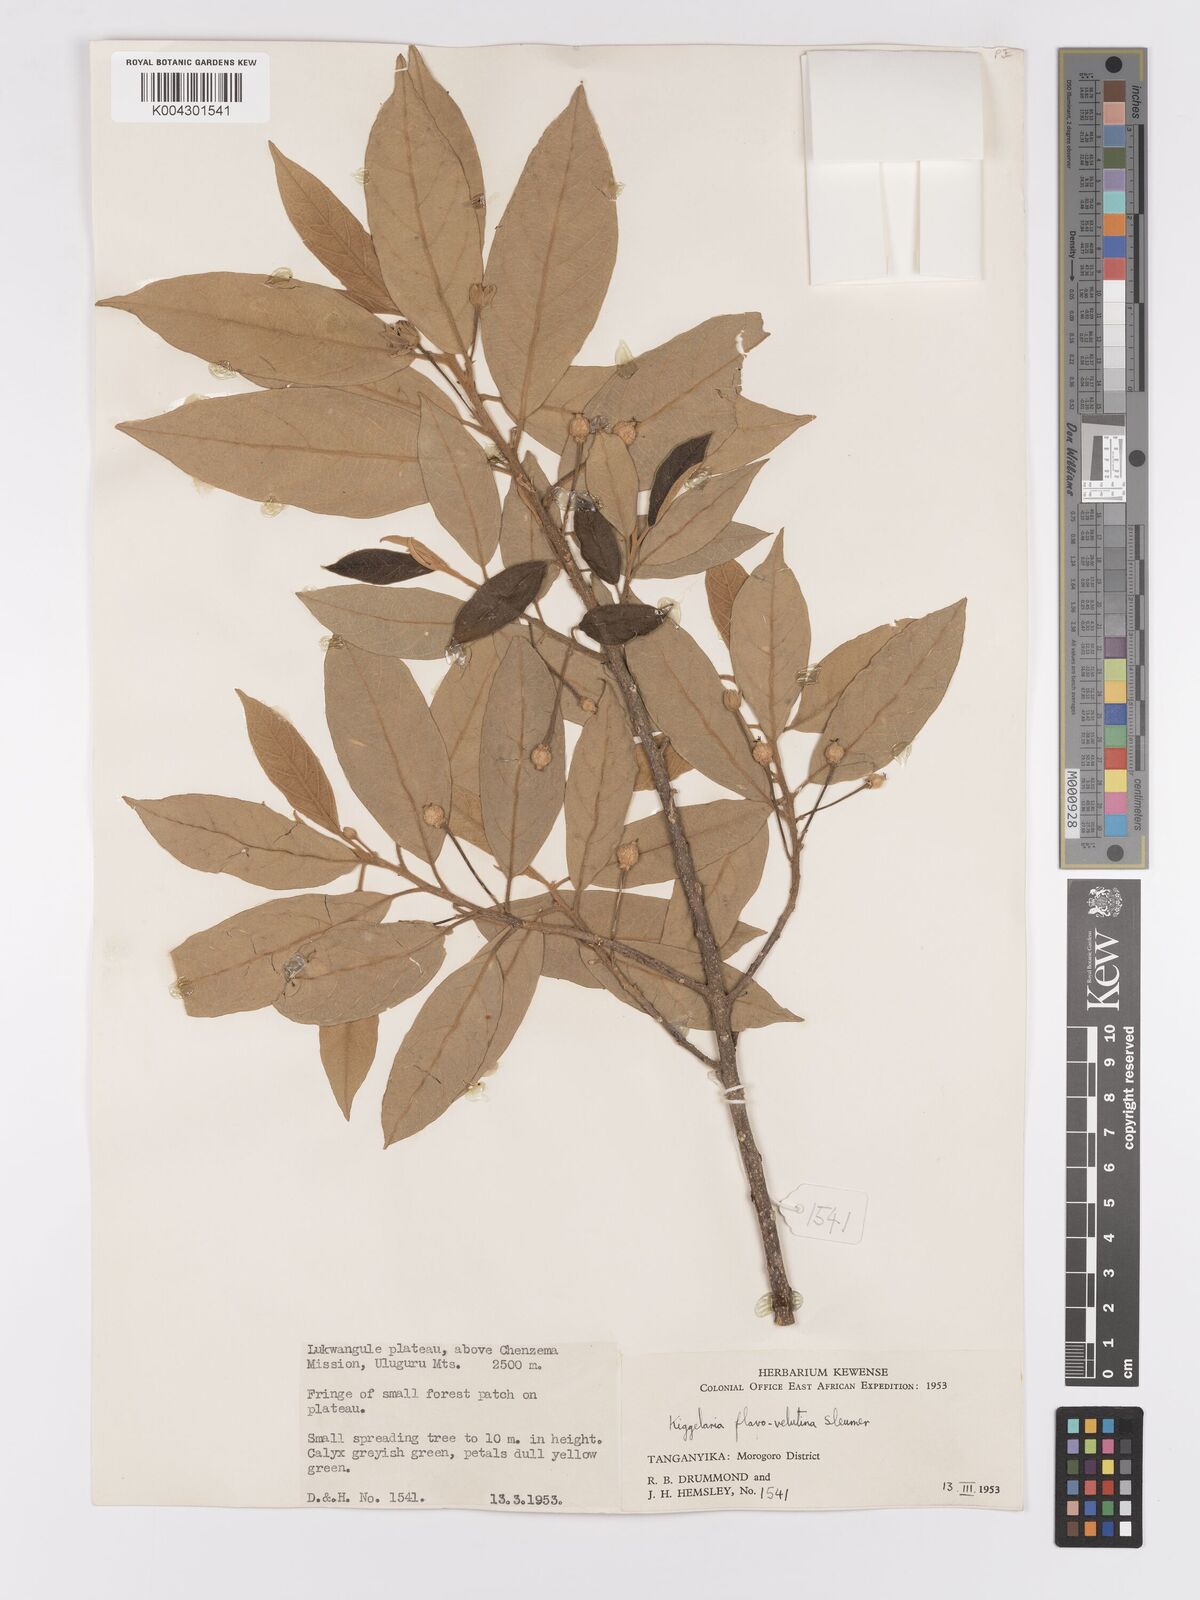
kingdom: Plantae
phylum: Tracheophyta
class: Magnoliopsida
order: Malpighiales
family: Achariaceae
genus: Kiggelaria
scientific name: Kiggelaria africana
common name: Wild peach
